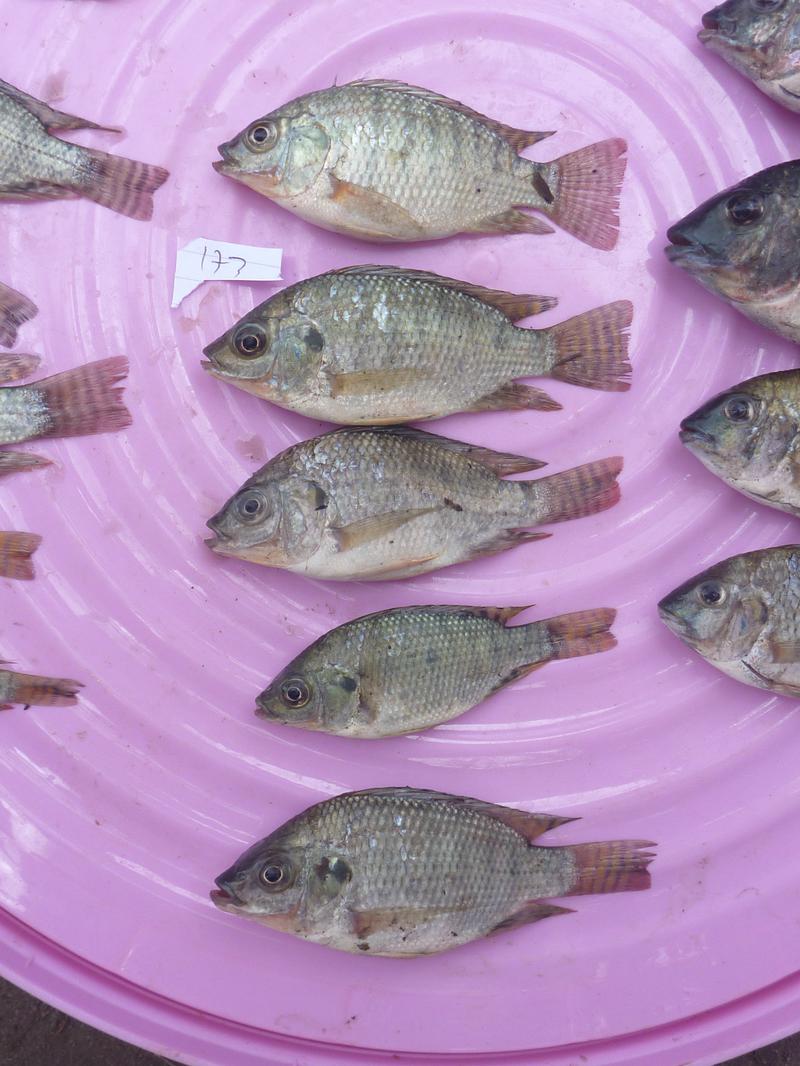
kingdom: Animalia
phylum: Chordata
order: Perciformes
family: Cichlidae
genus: Oreochromis
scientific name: Oreochromis niloticus
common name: Nile tilapia
